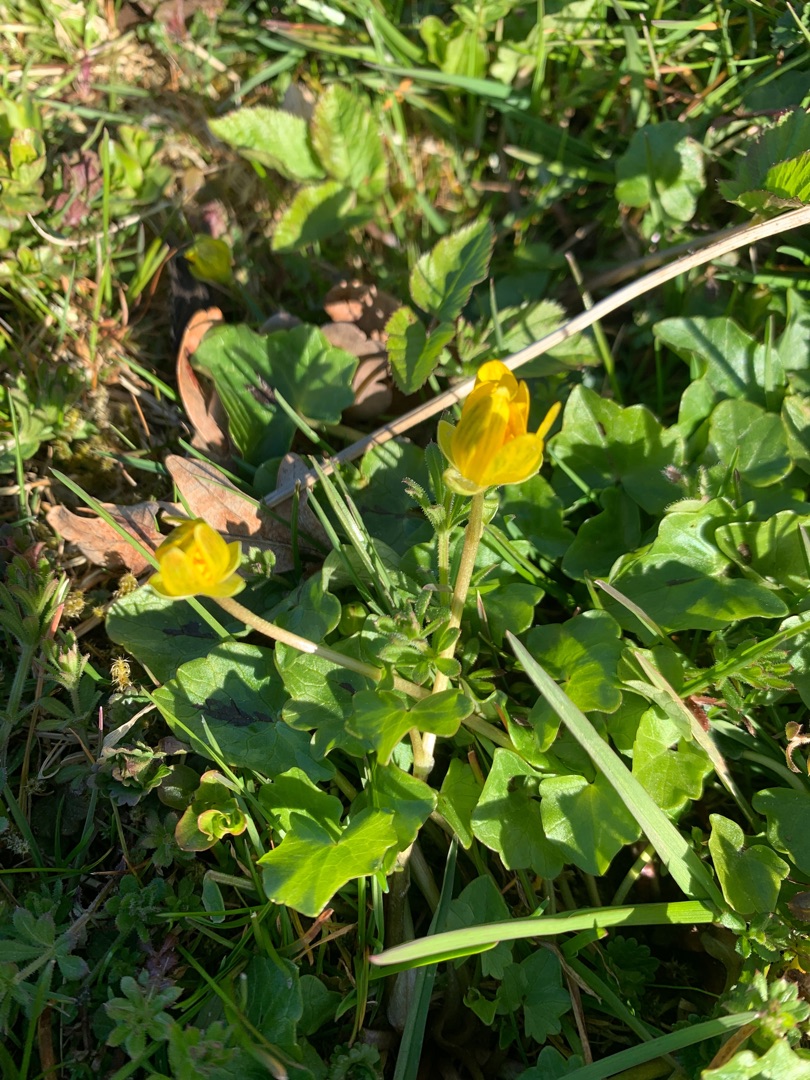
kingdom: Plantae
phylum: Tracheophyta
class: Magnoliopsida
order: Ranunculales
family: Ranunculaceae
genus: Ficaria
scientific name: Ficaria verna
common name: Vorterod
